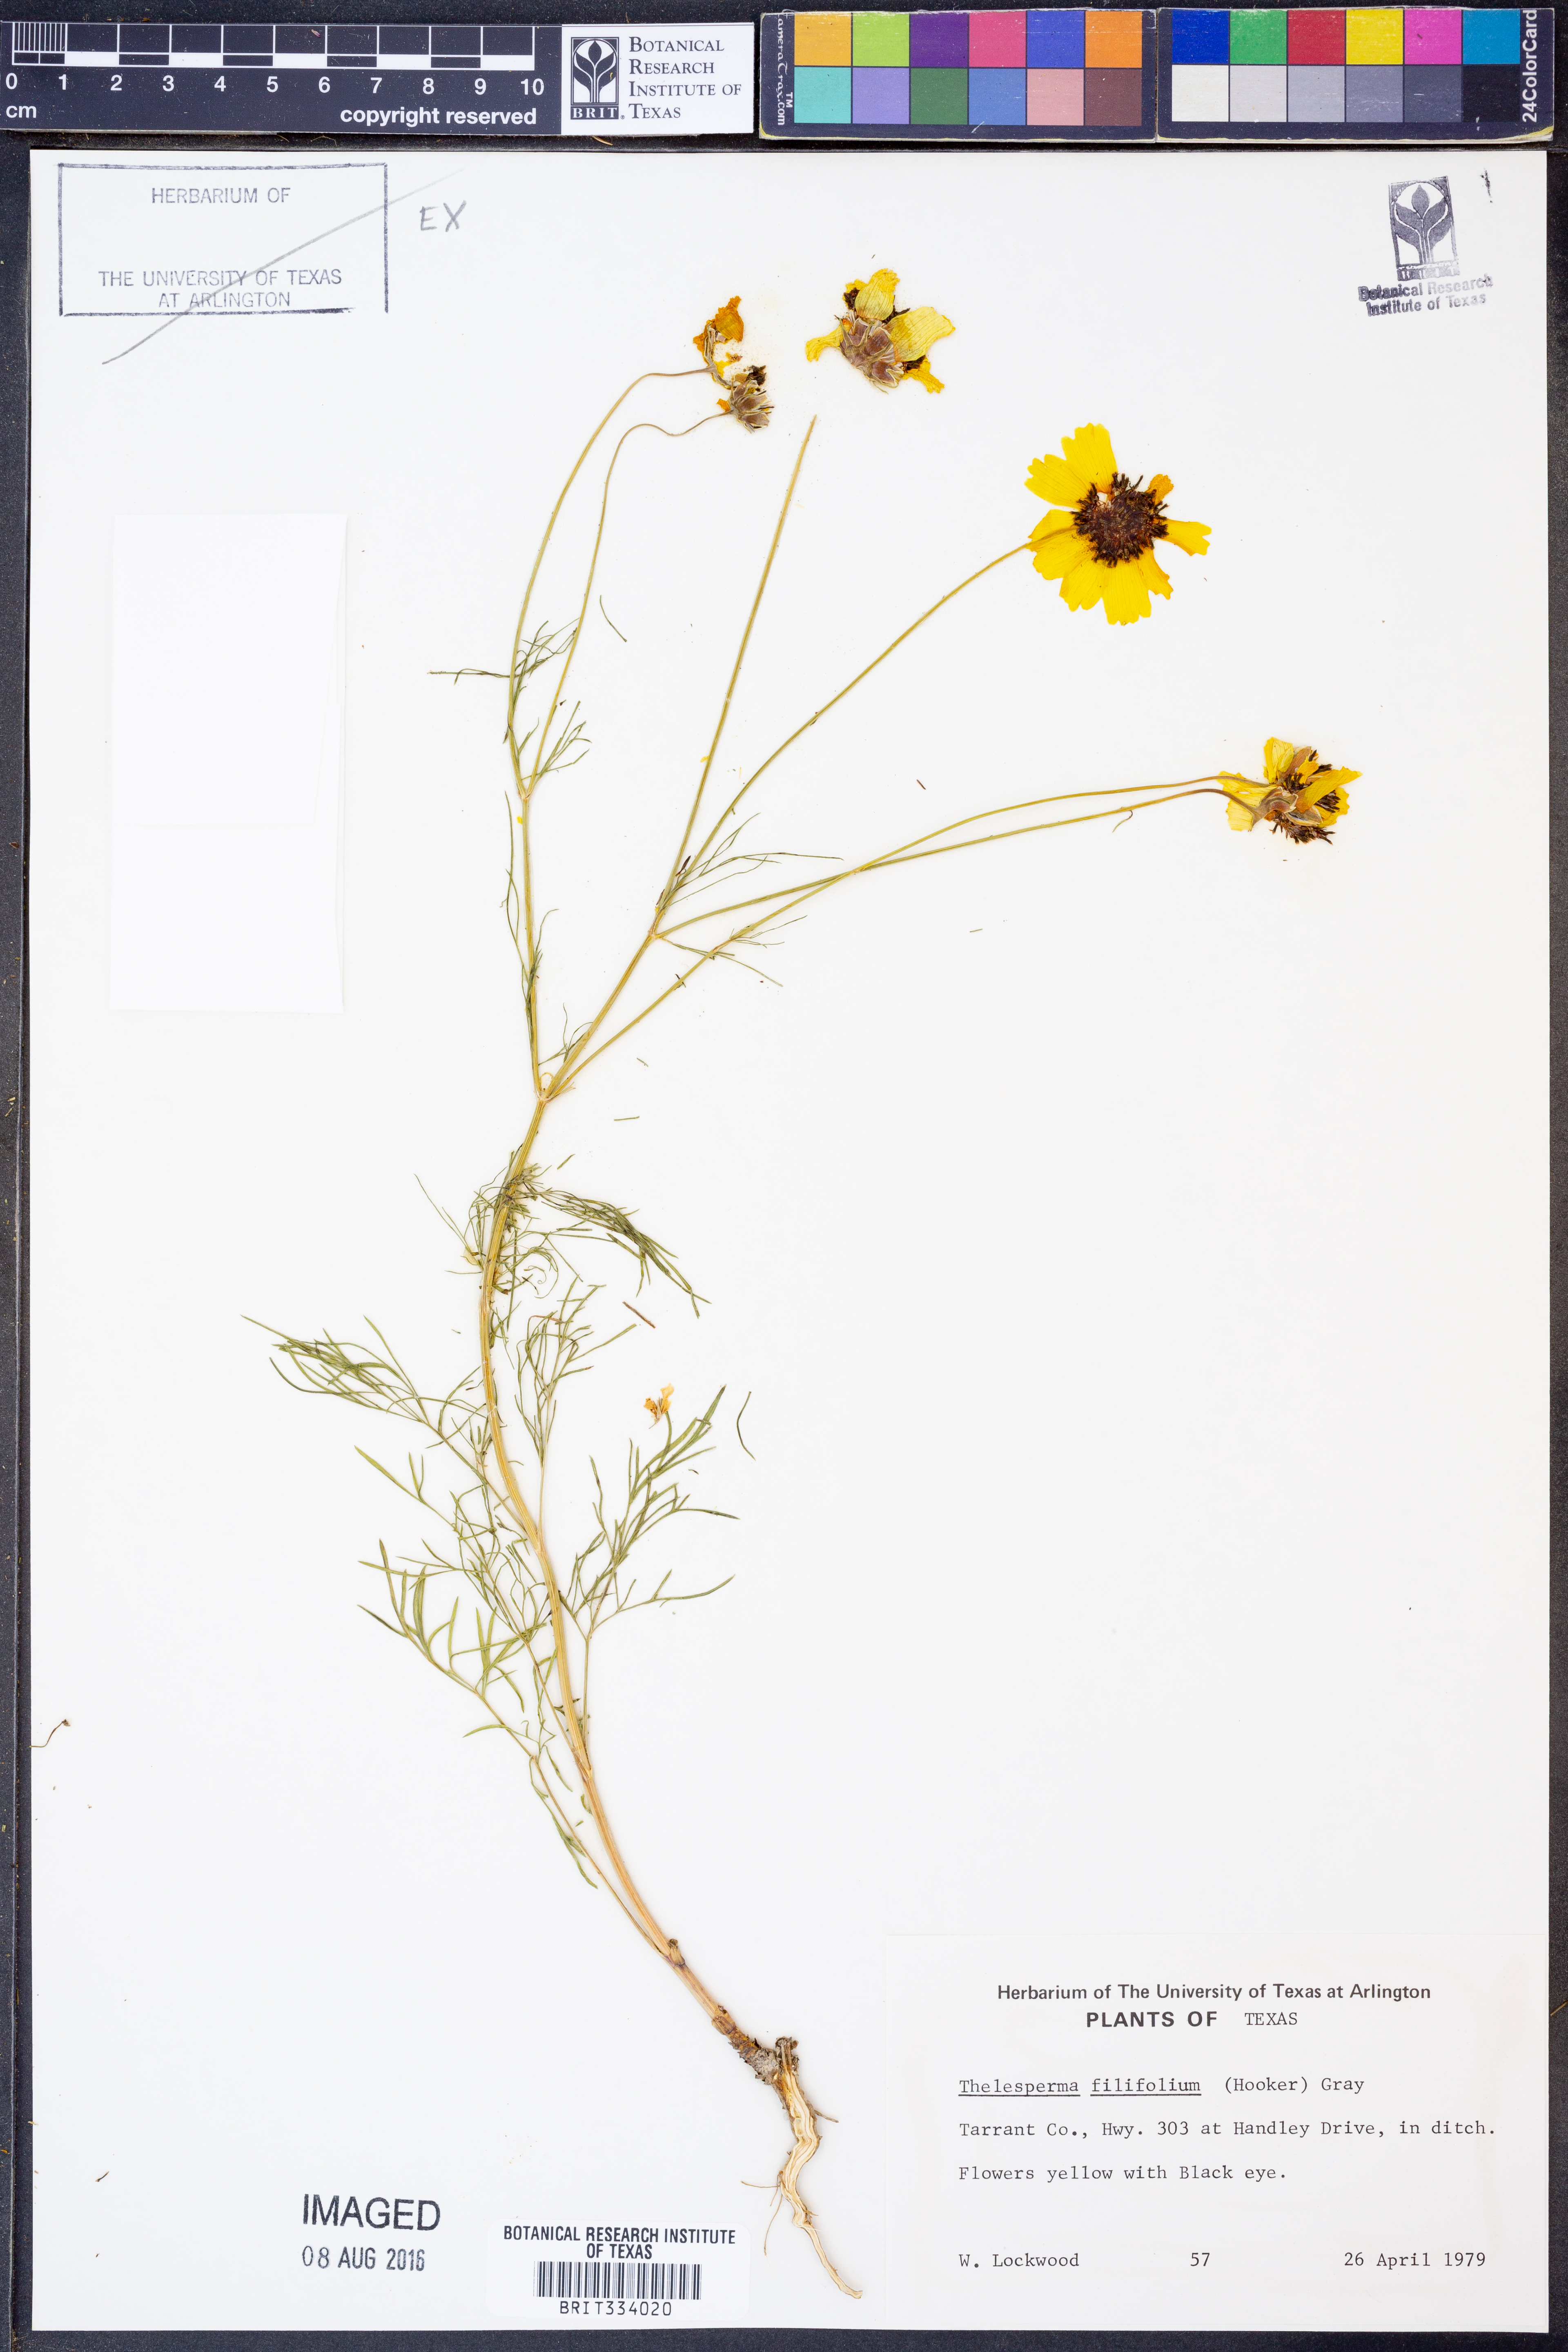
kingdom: Plantae
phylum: Tracheophyta
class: Magnoliopsida
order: Asterales
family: Asteraceae
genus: Thelesperma
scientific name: Thelesperma filifolium
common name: Stiff greenthread
